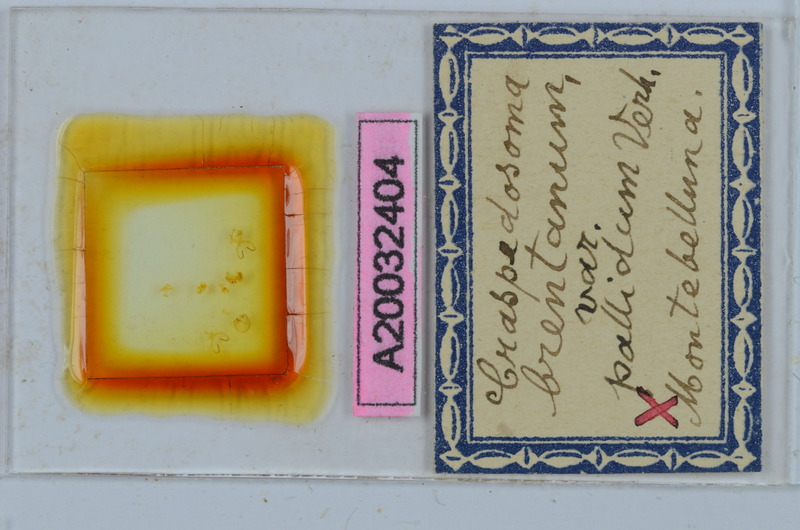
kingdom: Animalia
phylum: Arthropoda
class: Diplopoda
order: Chordeumatida
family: Craspedosomatidae
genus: Craspedosoma
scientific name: Craspedosoma brentanum
